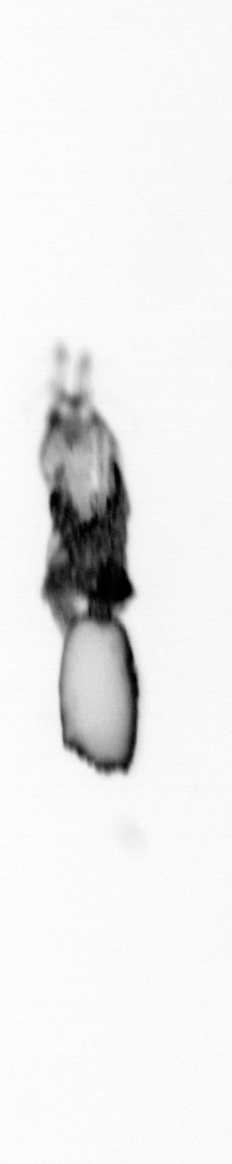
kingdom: Animalia
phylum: Arthropoda
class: Copepoda
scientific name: Copepoda
